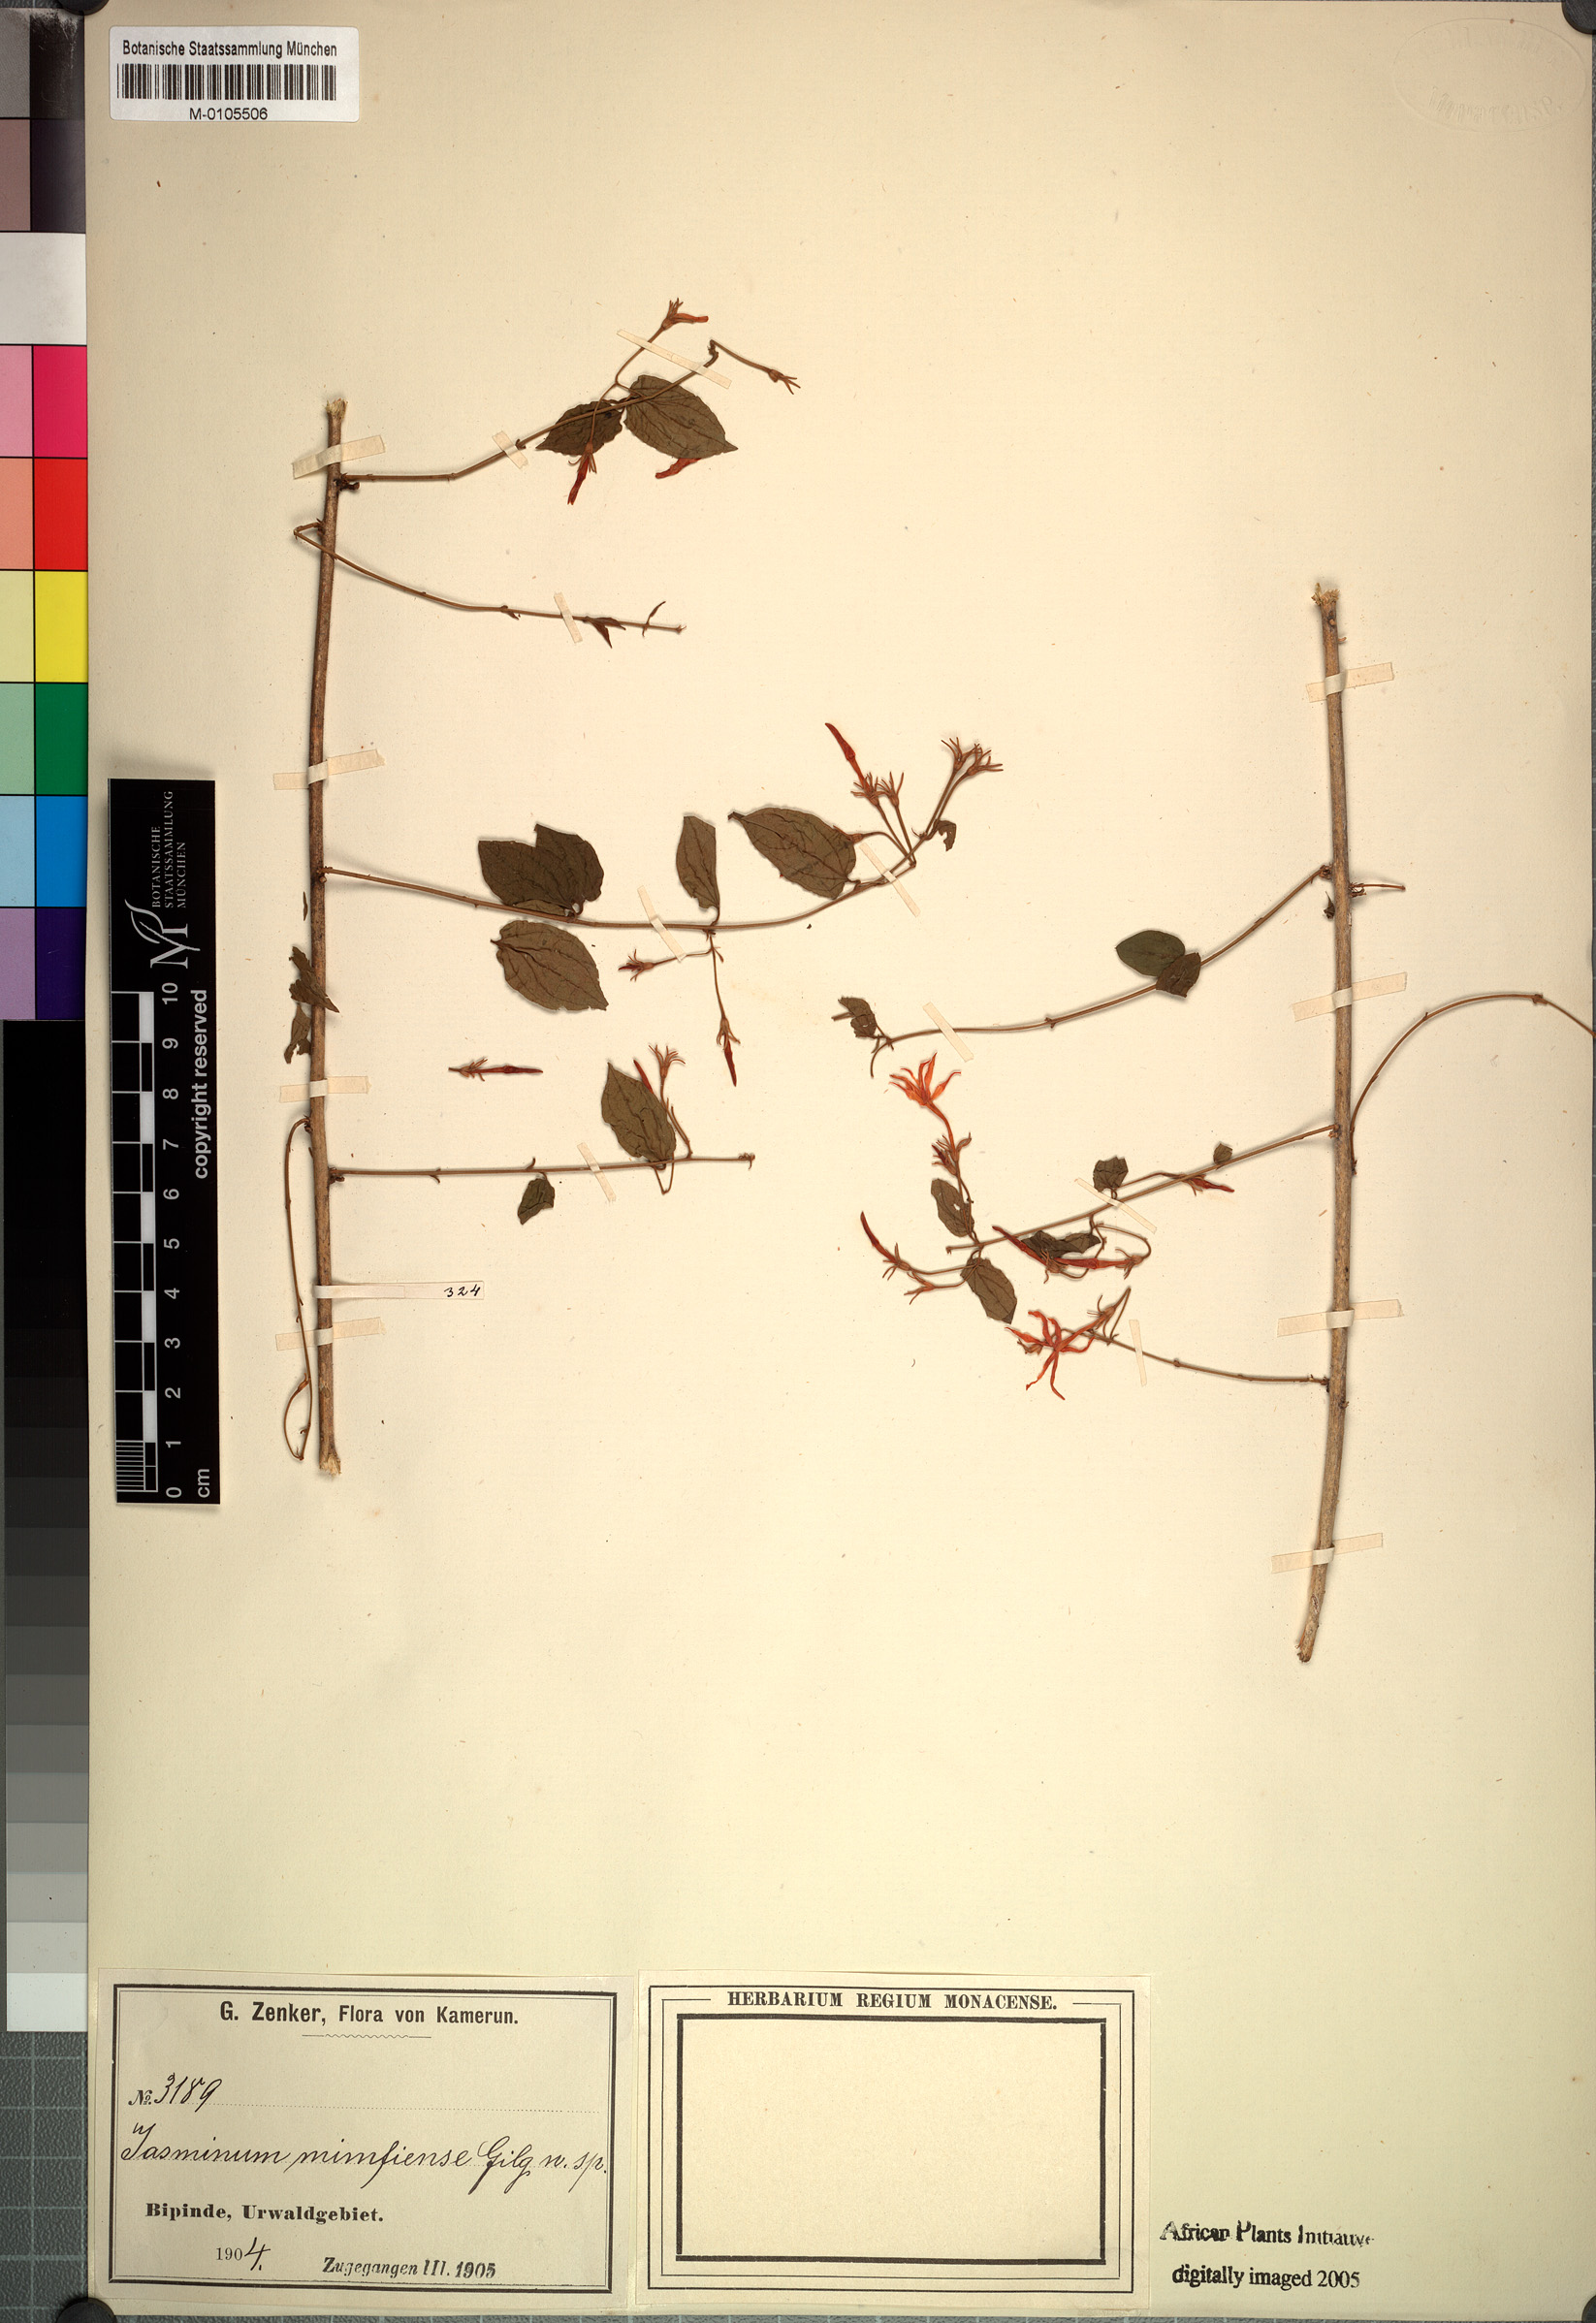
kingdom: Plantae
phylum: Tracheophyta
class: Magnoliopsida
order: Lamiales
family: Oleaceae
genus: Jasminum
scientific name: Jasminum
